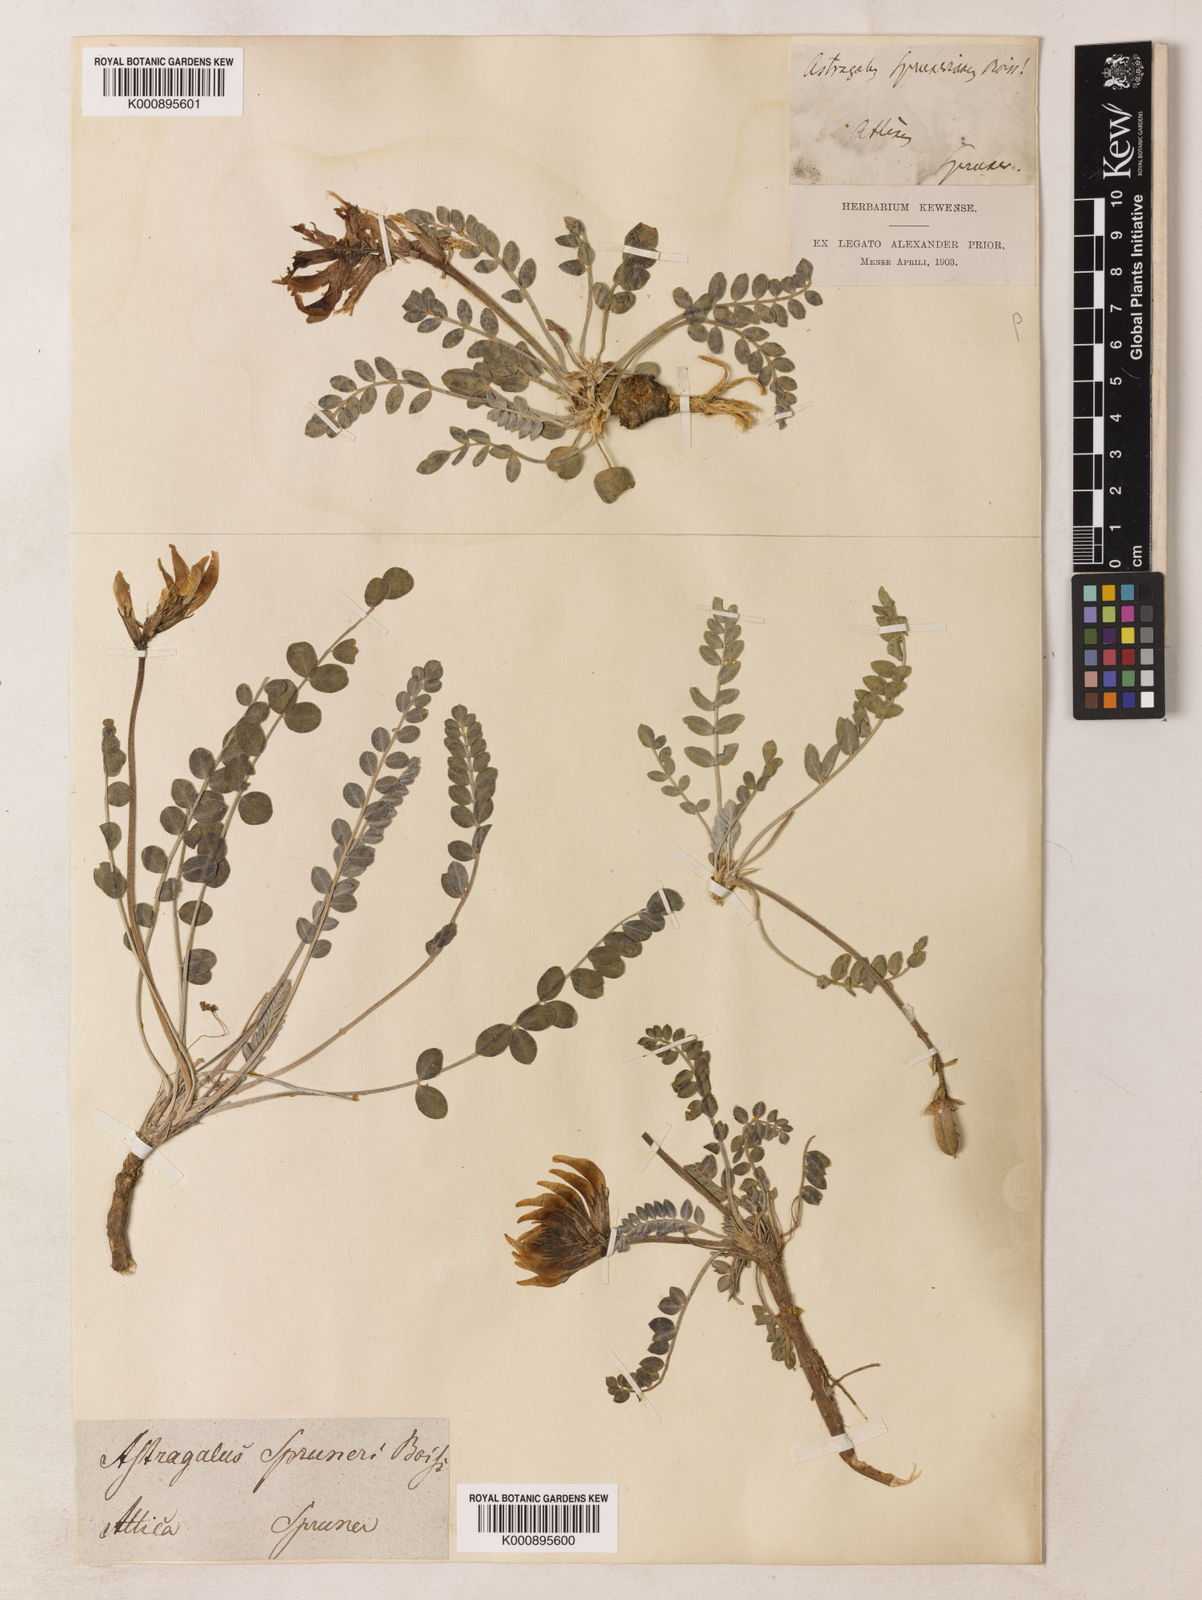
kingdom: Plantae
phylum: Tracheophyta
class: Magnoliopsida
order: Fabales
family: Fabaceae
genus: Astragalus
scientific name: Astragalus spruneri
